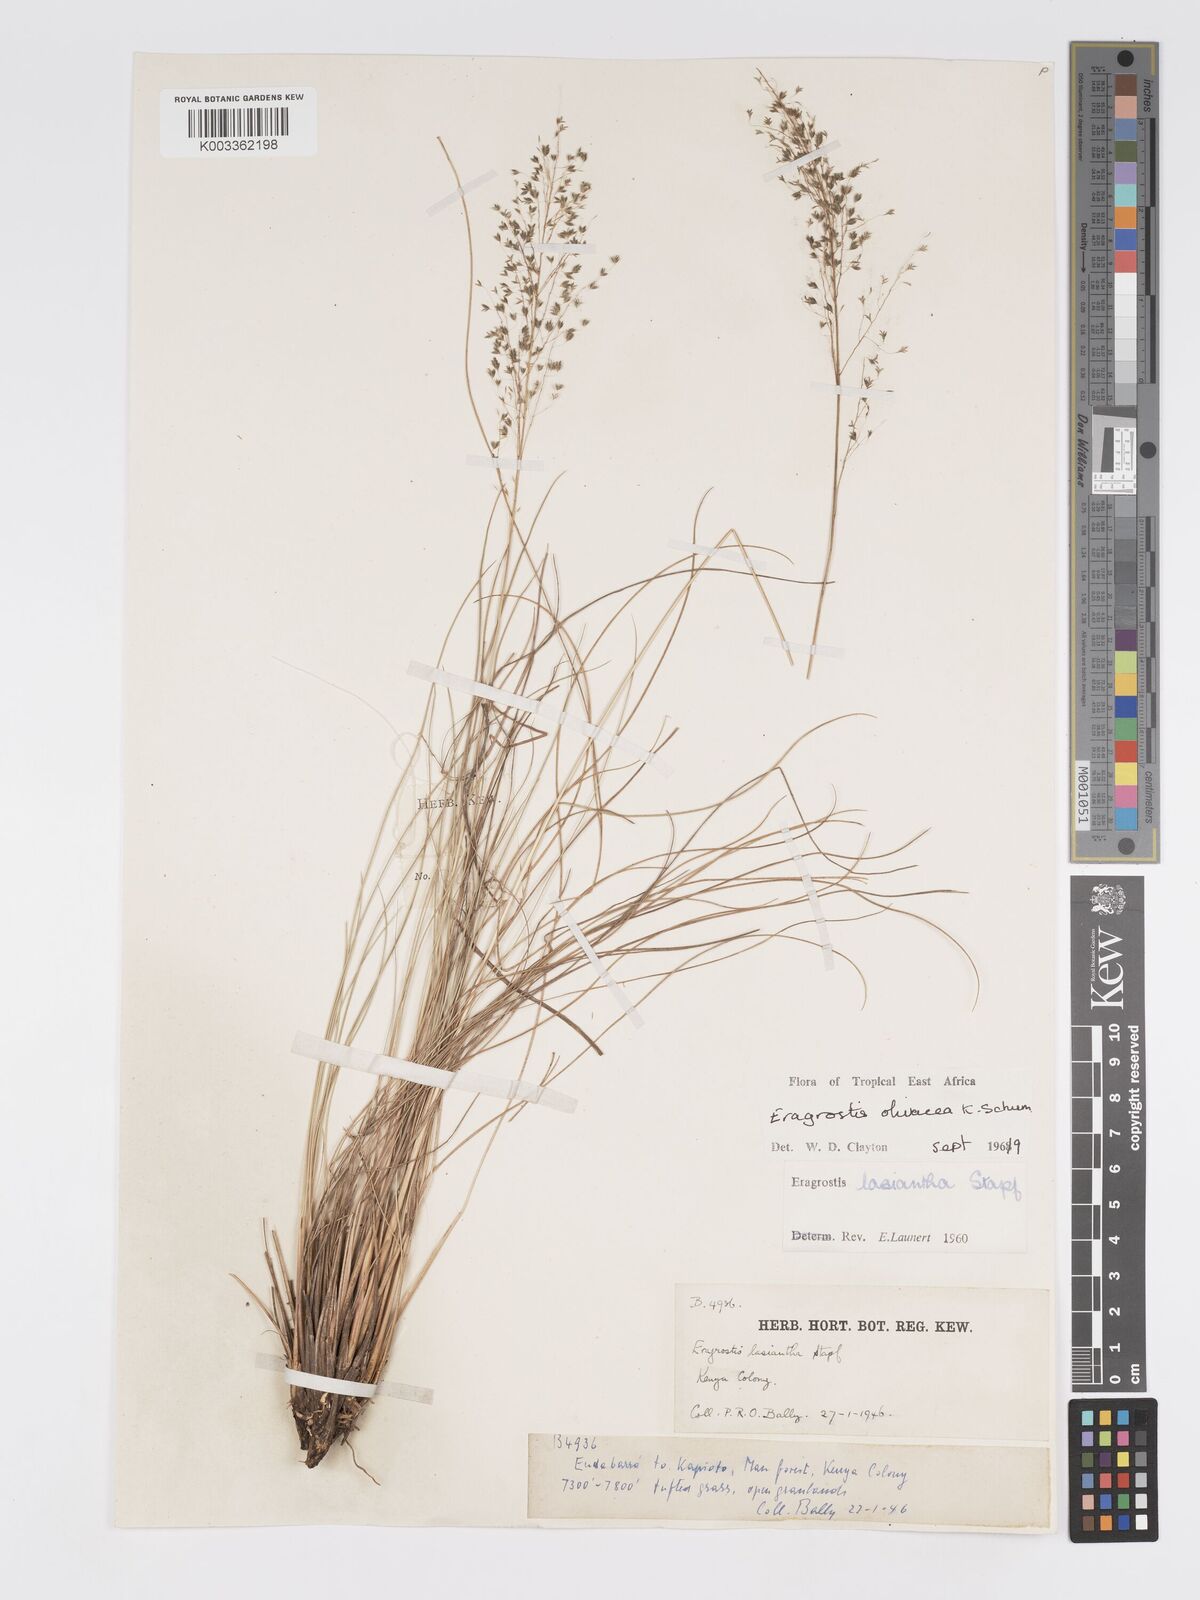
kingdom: Plantae
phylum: Tracheophyta
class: Liliopsida
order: Poales
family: Poaceae
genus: Eragrostis
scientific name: Eragrostis olivacea
